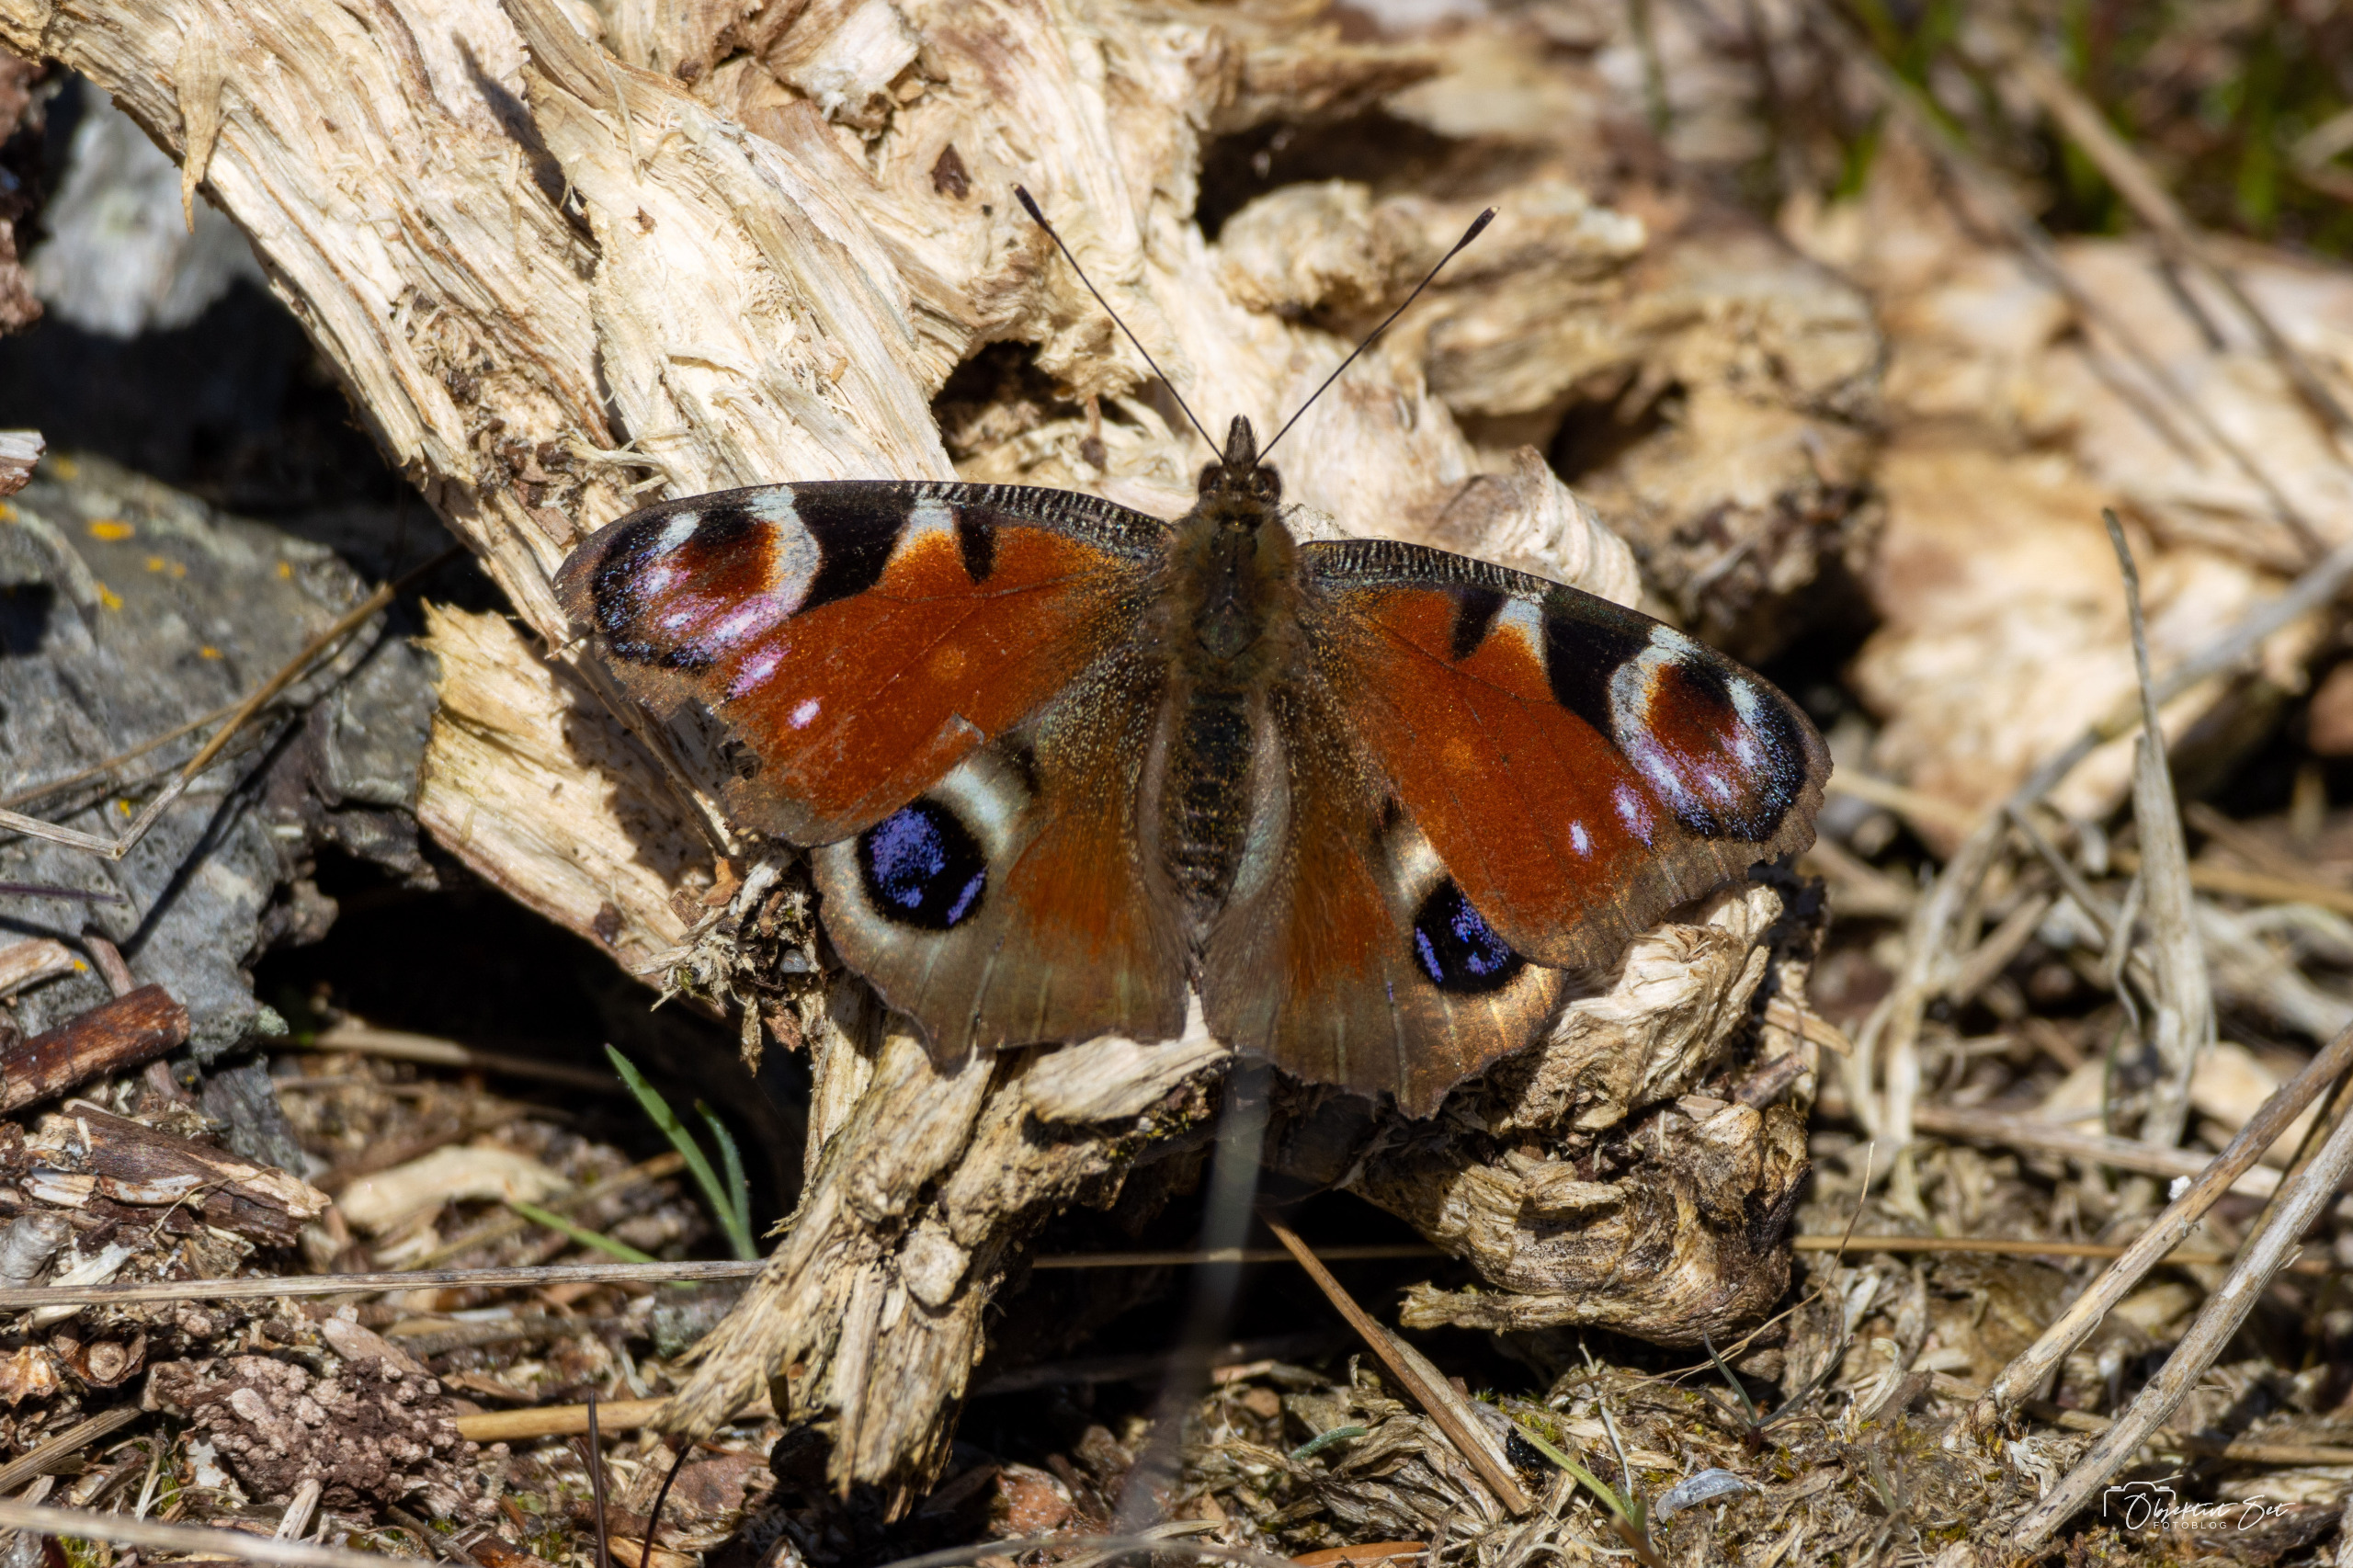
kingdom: Animalia
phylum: Arthropoda
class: Insecta
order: Lepidoptera
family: Nymphalidae
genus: Aglais
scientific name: Aglais io
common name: Dagpåfugleøje
